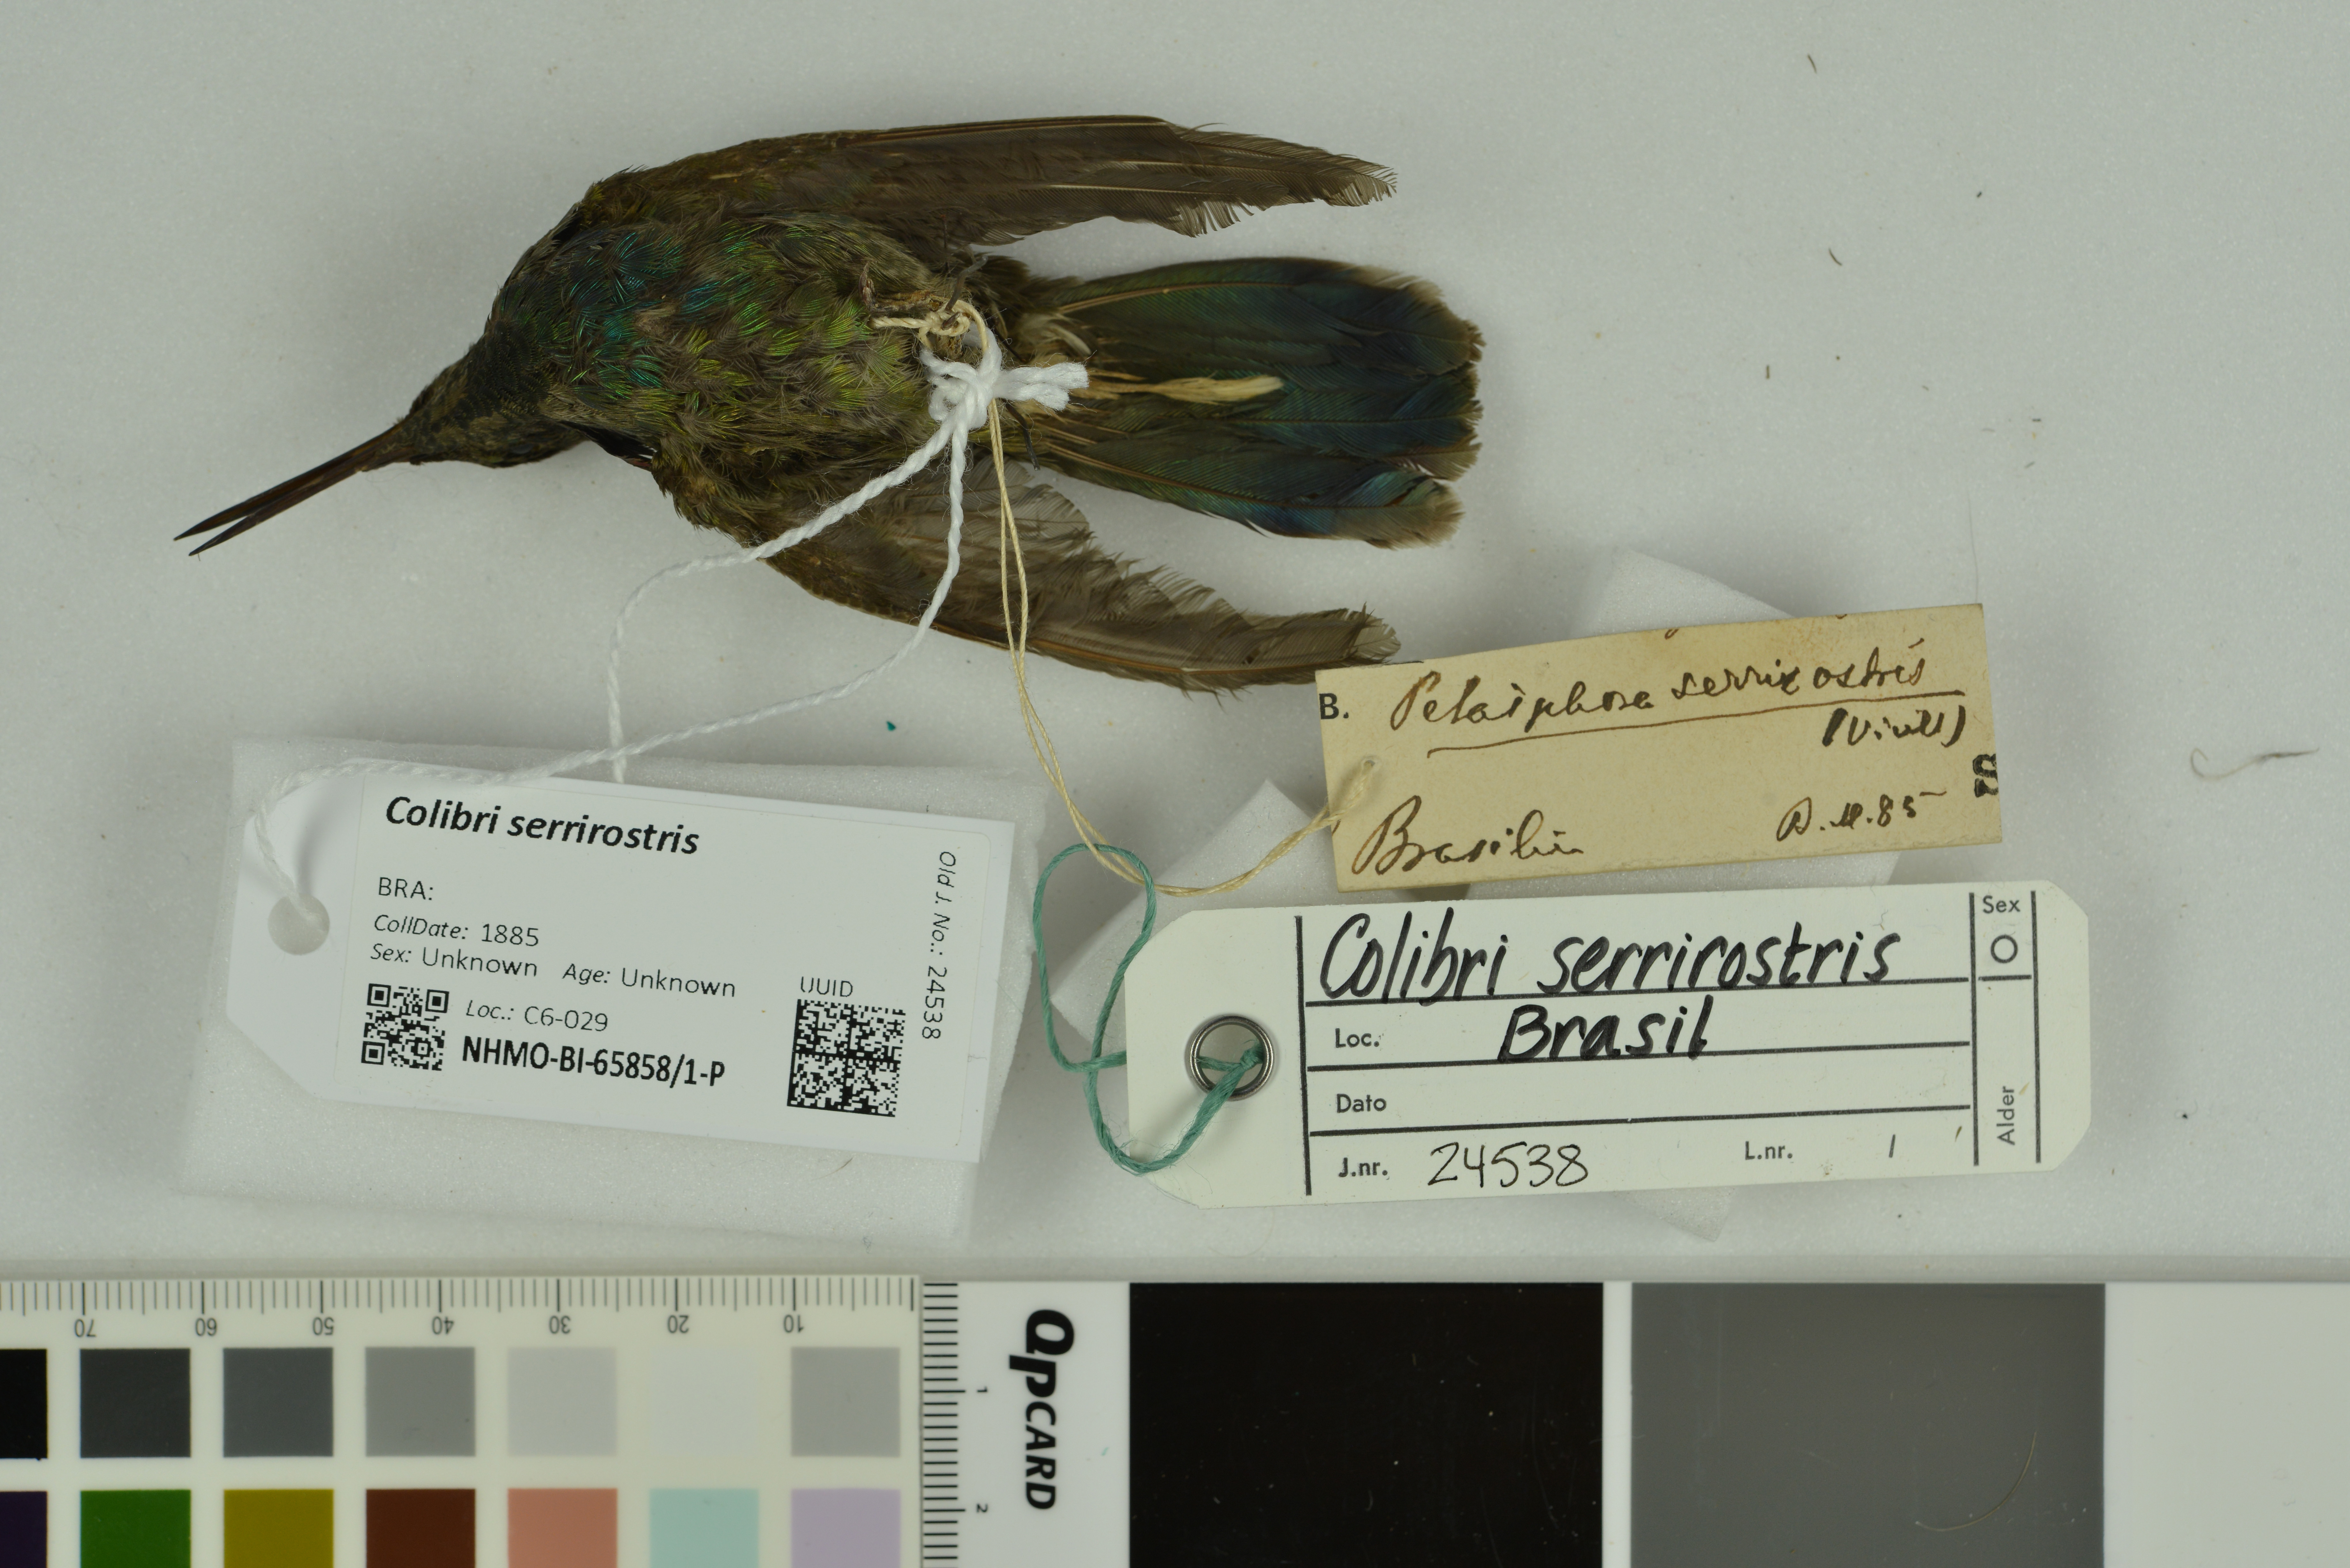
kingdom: Animalia
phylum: Chordata
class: Aves
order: Apodiformes
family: Trochilidae
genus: Colibri
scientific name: Colibri serrirostris
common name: White-vented violetear
